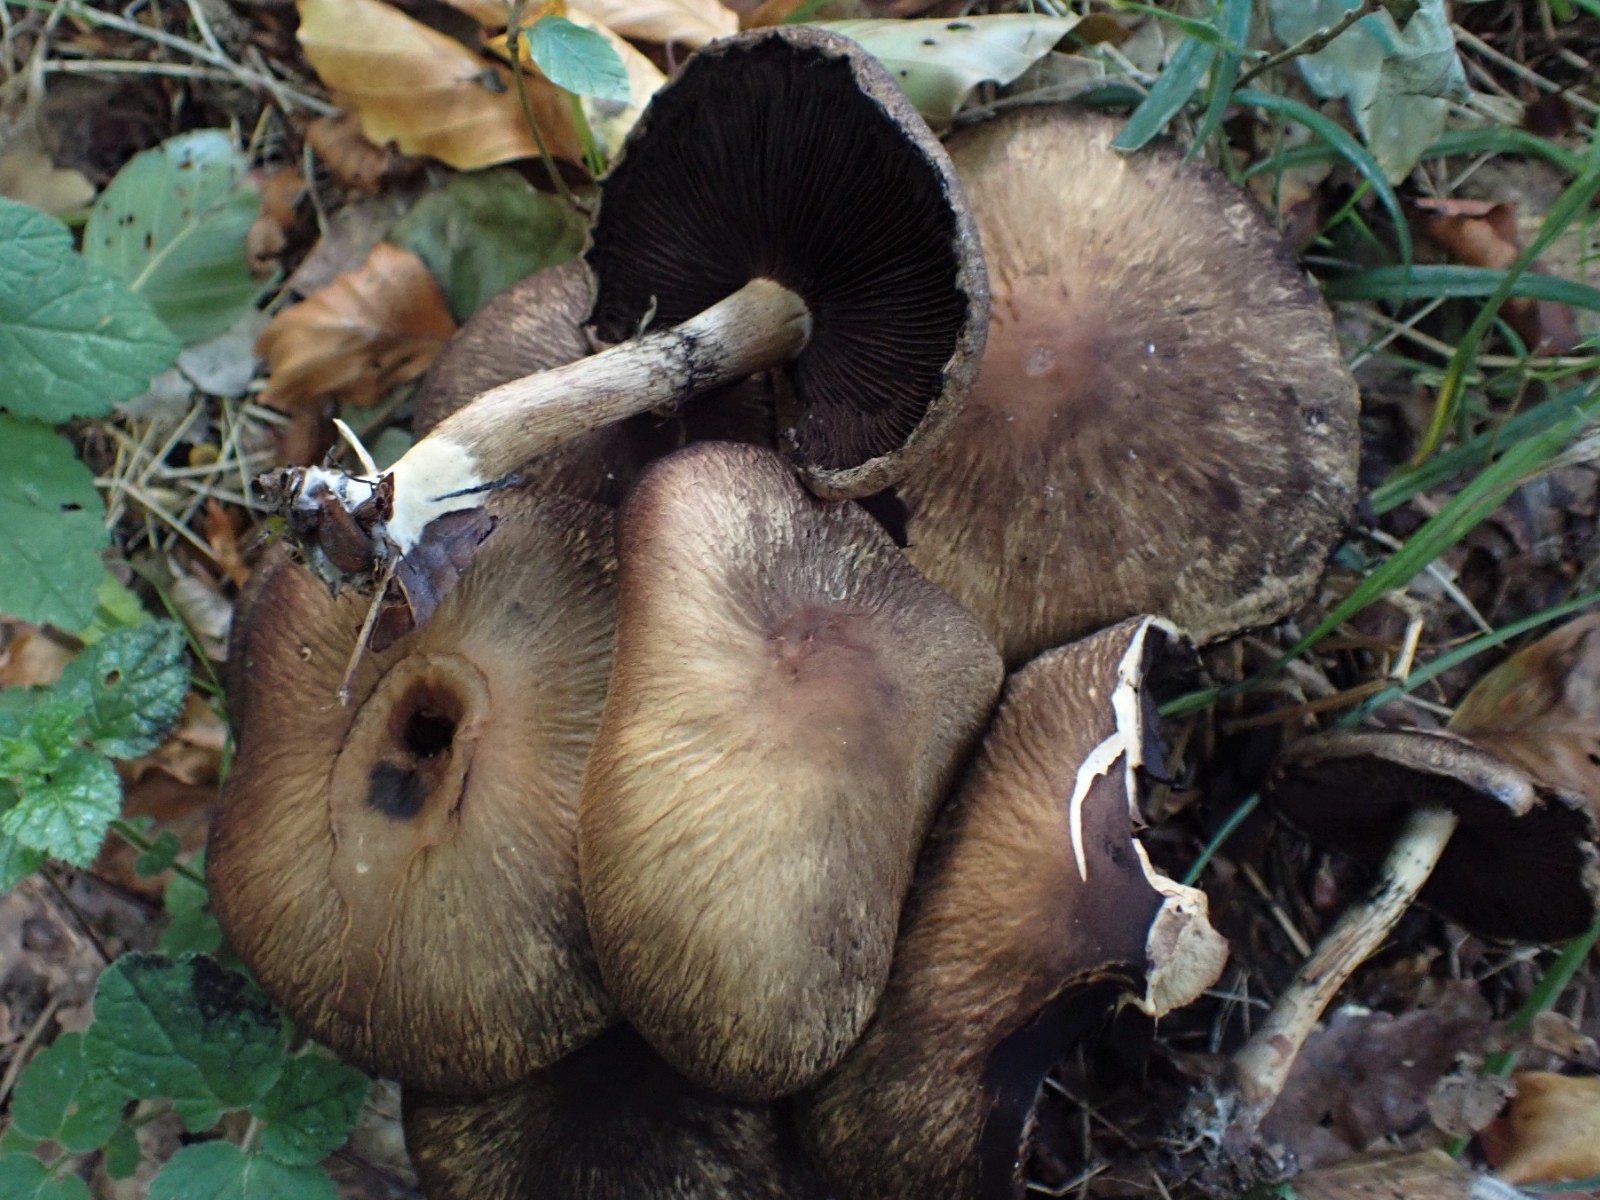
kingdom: Fungi
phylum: Basidiomycota
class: Agaricomycetes
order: Agaricales
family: Psathyrellaceae
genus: Lacrymaria
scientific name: Lacrymaria lacrymabunda
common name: grædende mørkhat
